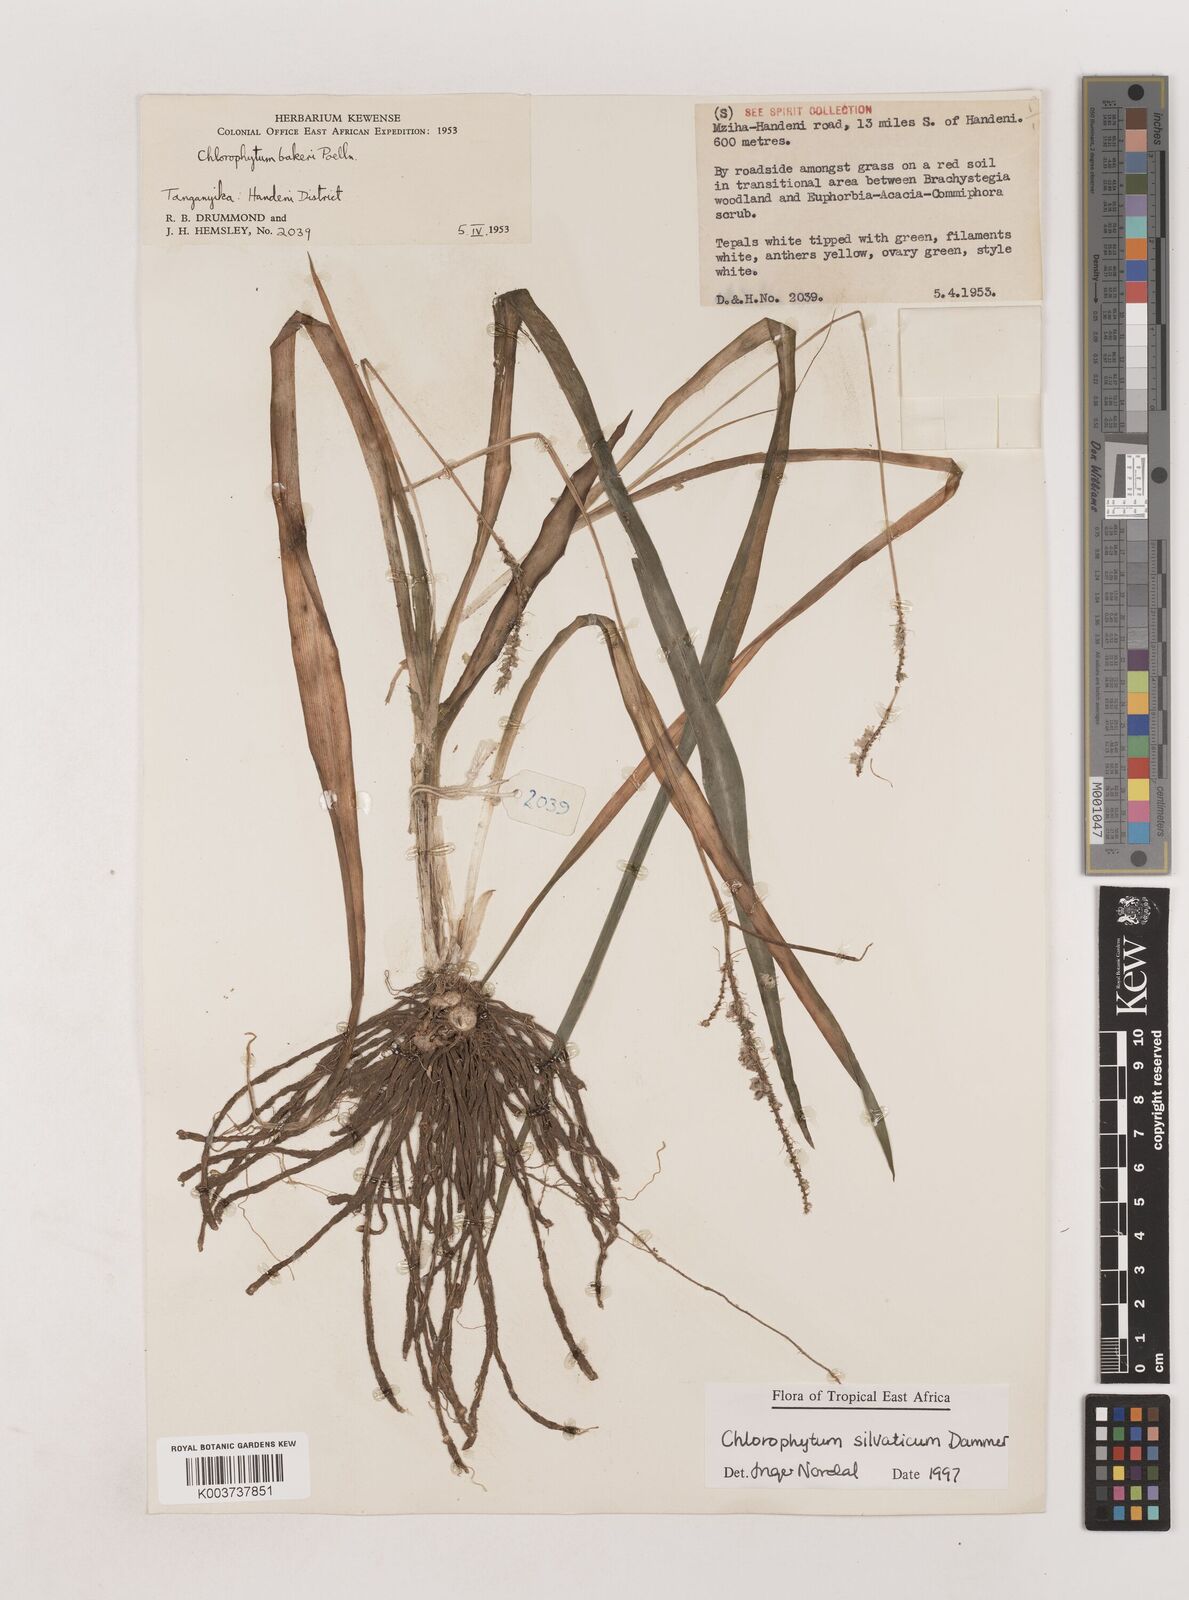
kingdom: Plantae
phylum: Tracheophyta
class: Liliopsida
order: Asparagales
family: Asparagaceae
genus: Chlorophytum
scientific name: Chlorophytum africanum
